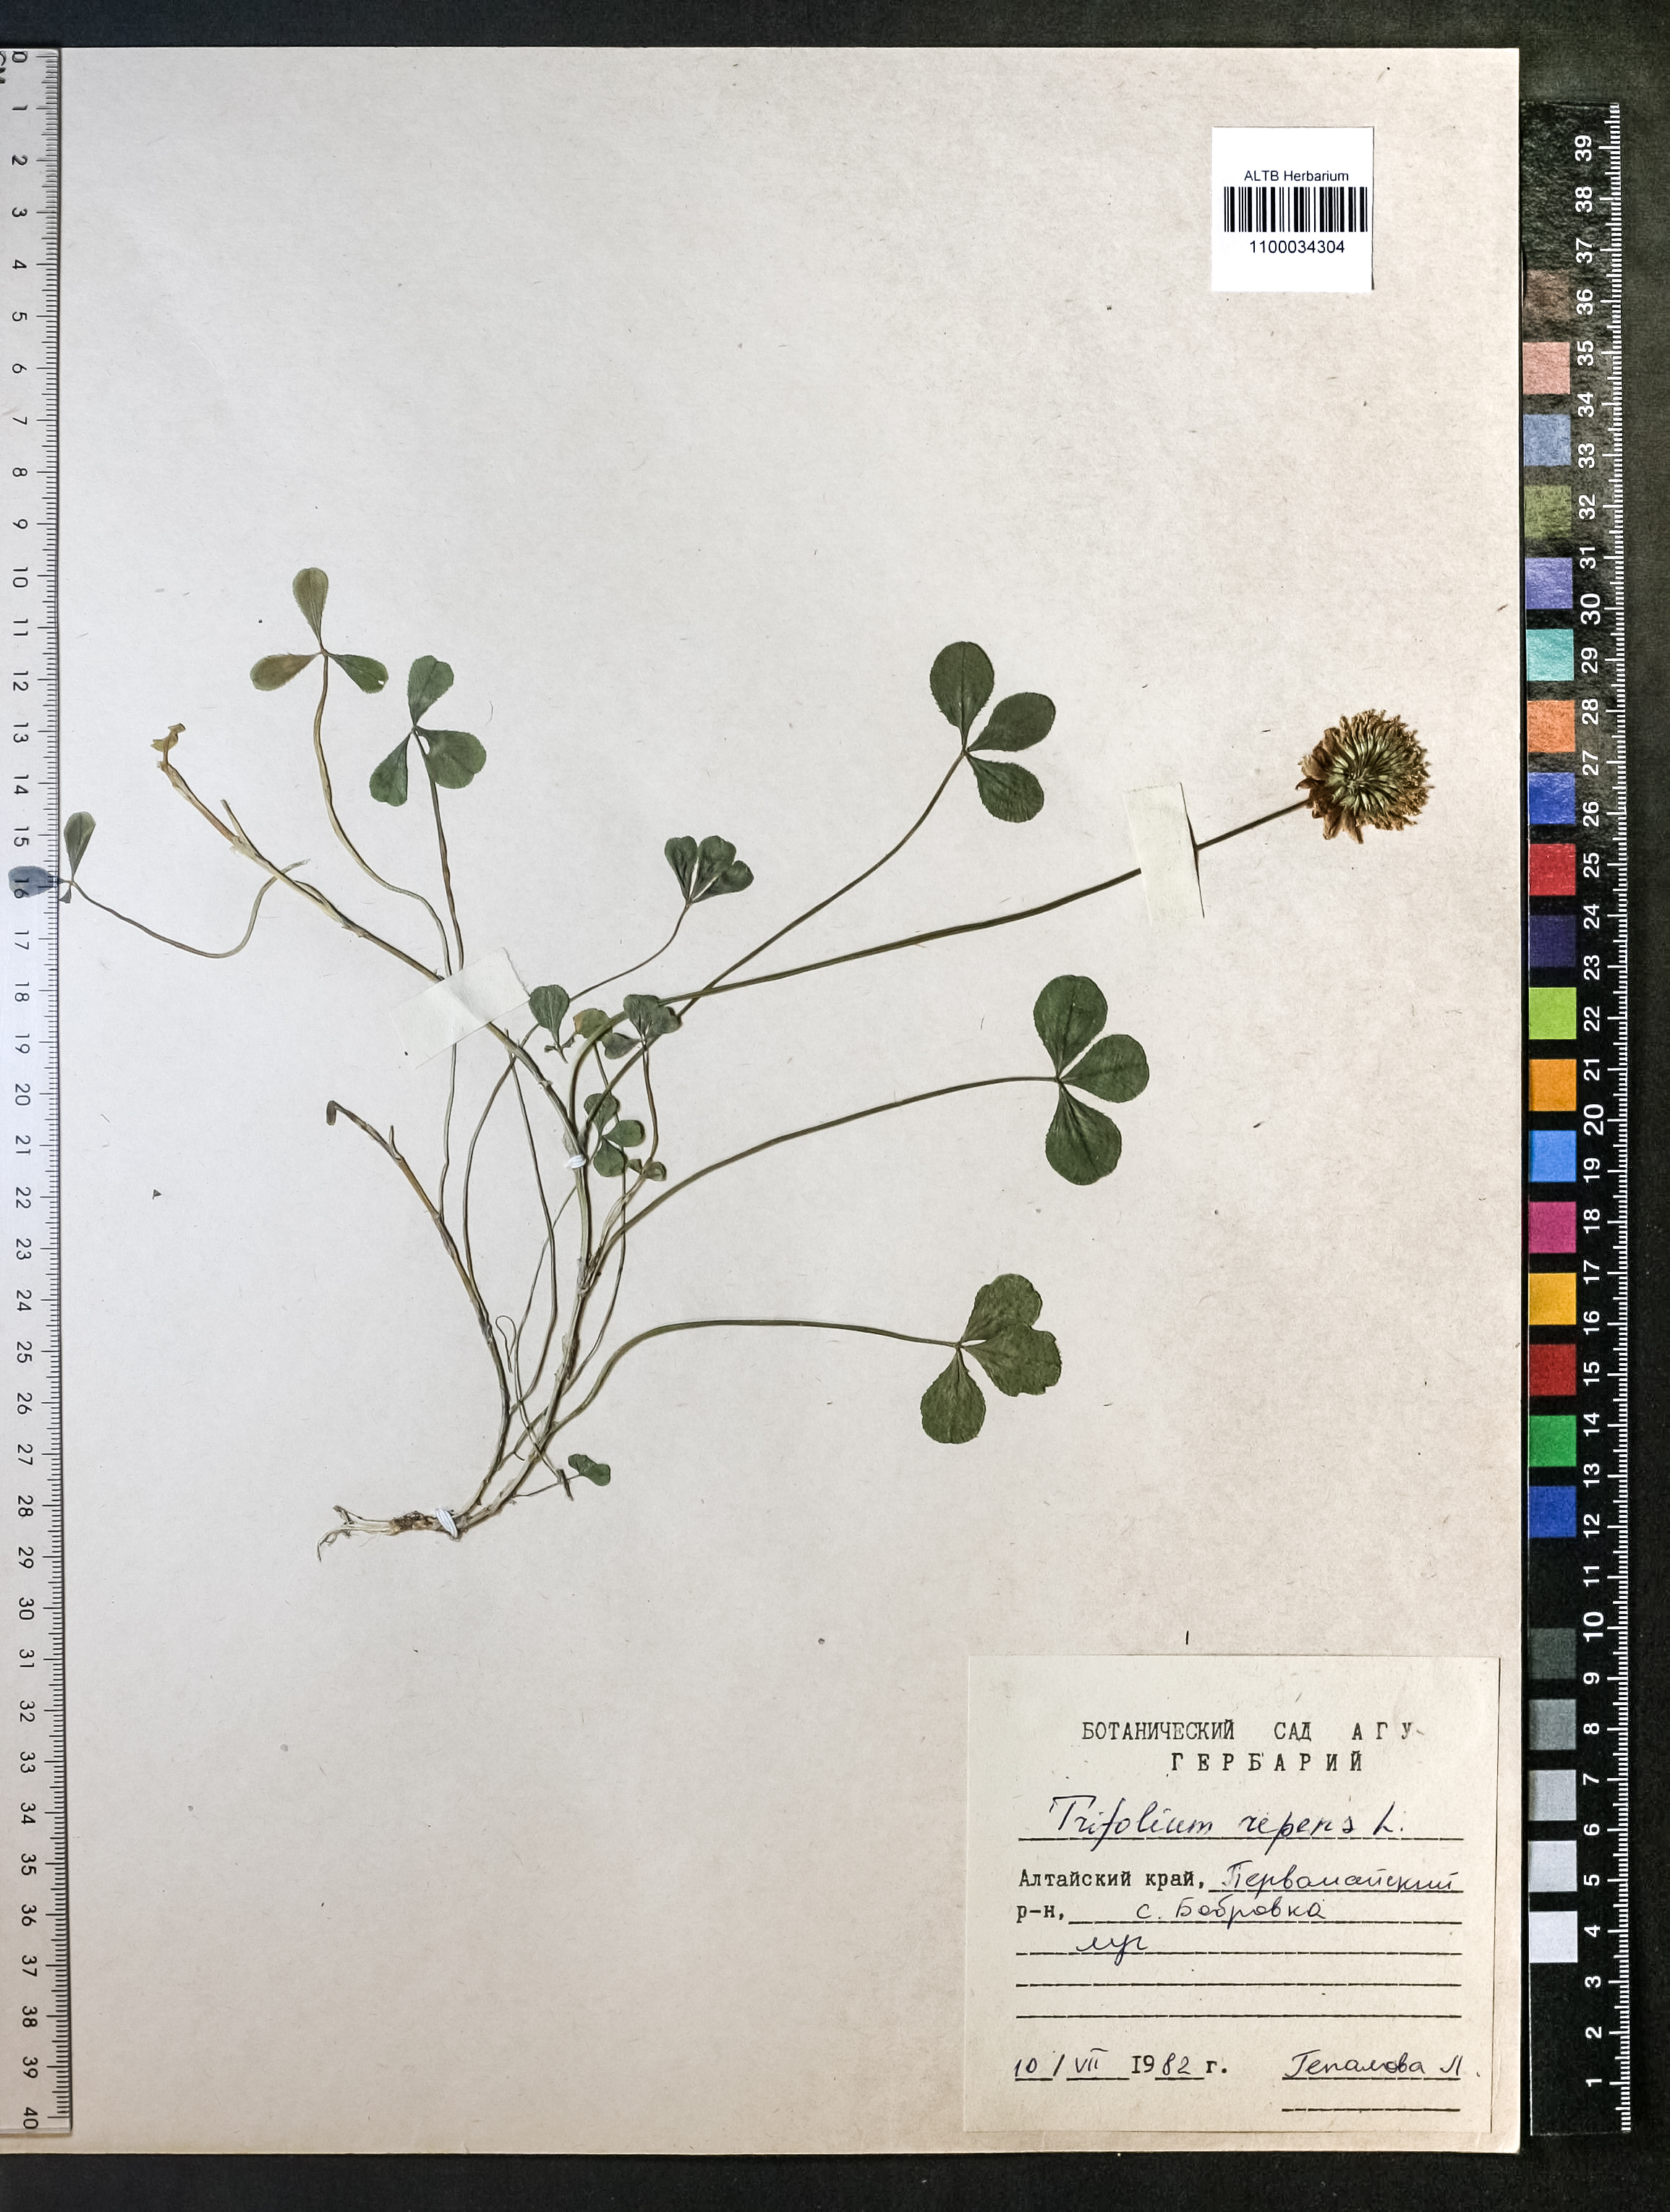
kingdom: Plantae
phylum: Tracheophyta
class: Magnoliopsida
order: Fabales
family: Fabaceae
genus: Trifolium
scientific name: Trifolium repens
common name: White clover
